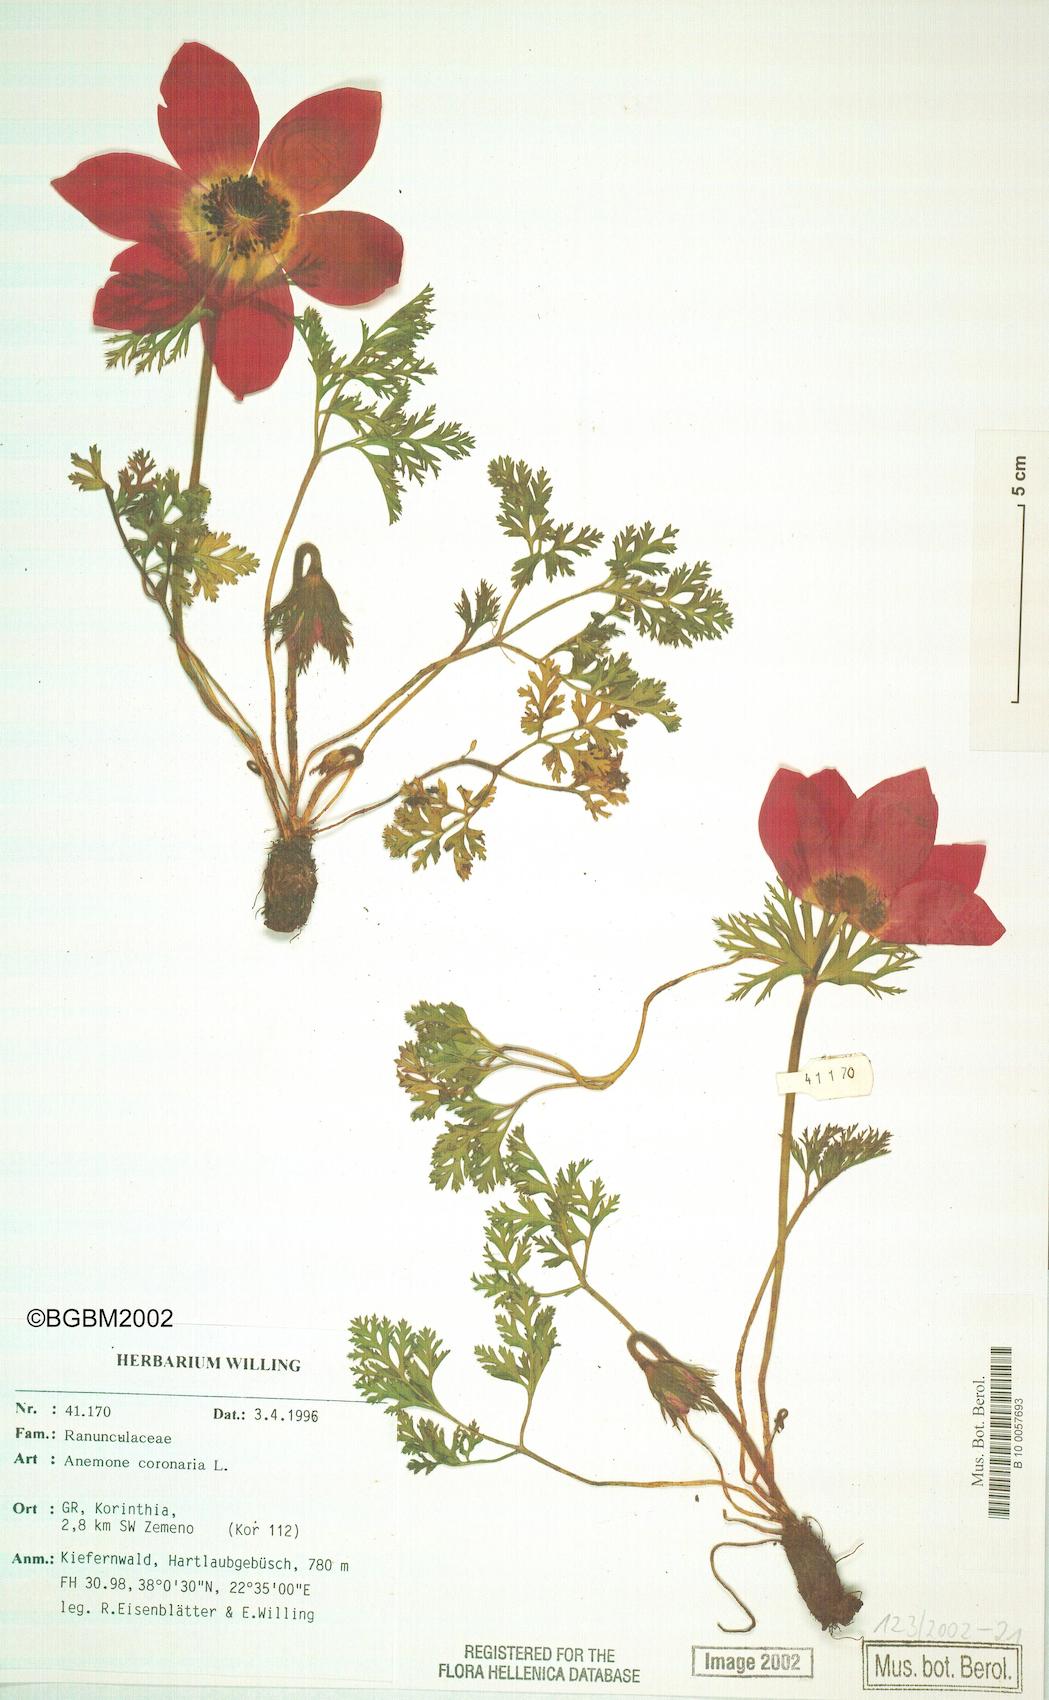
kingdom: Plantae
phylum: Tracheophyta
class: Magnoliopsida
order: Ranunculales
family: Ranunculaceae
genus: Anemone
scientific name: Anemone coronaria
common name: Poppy anemone
